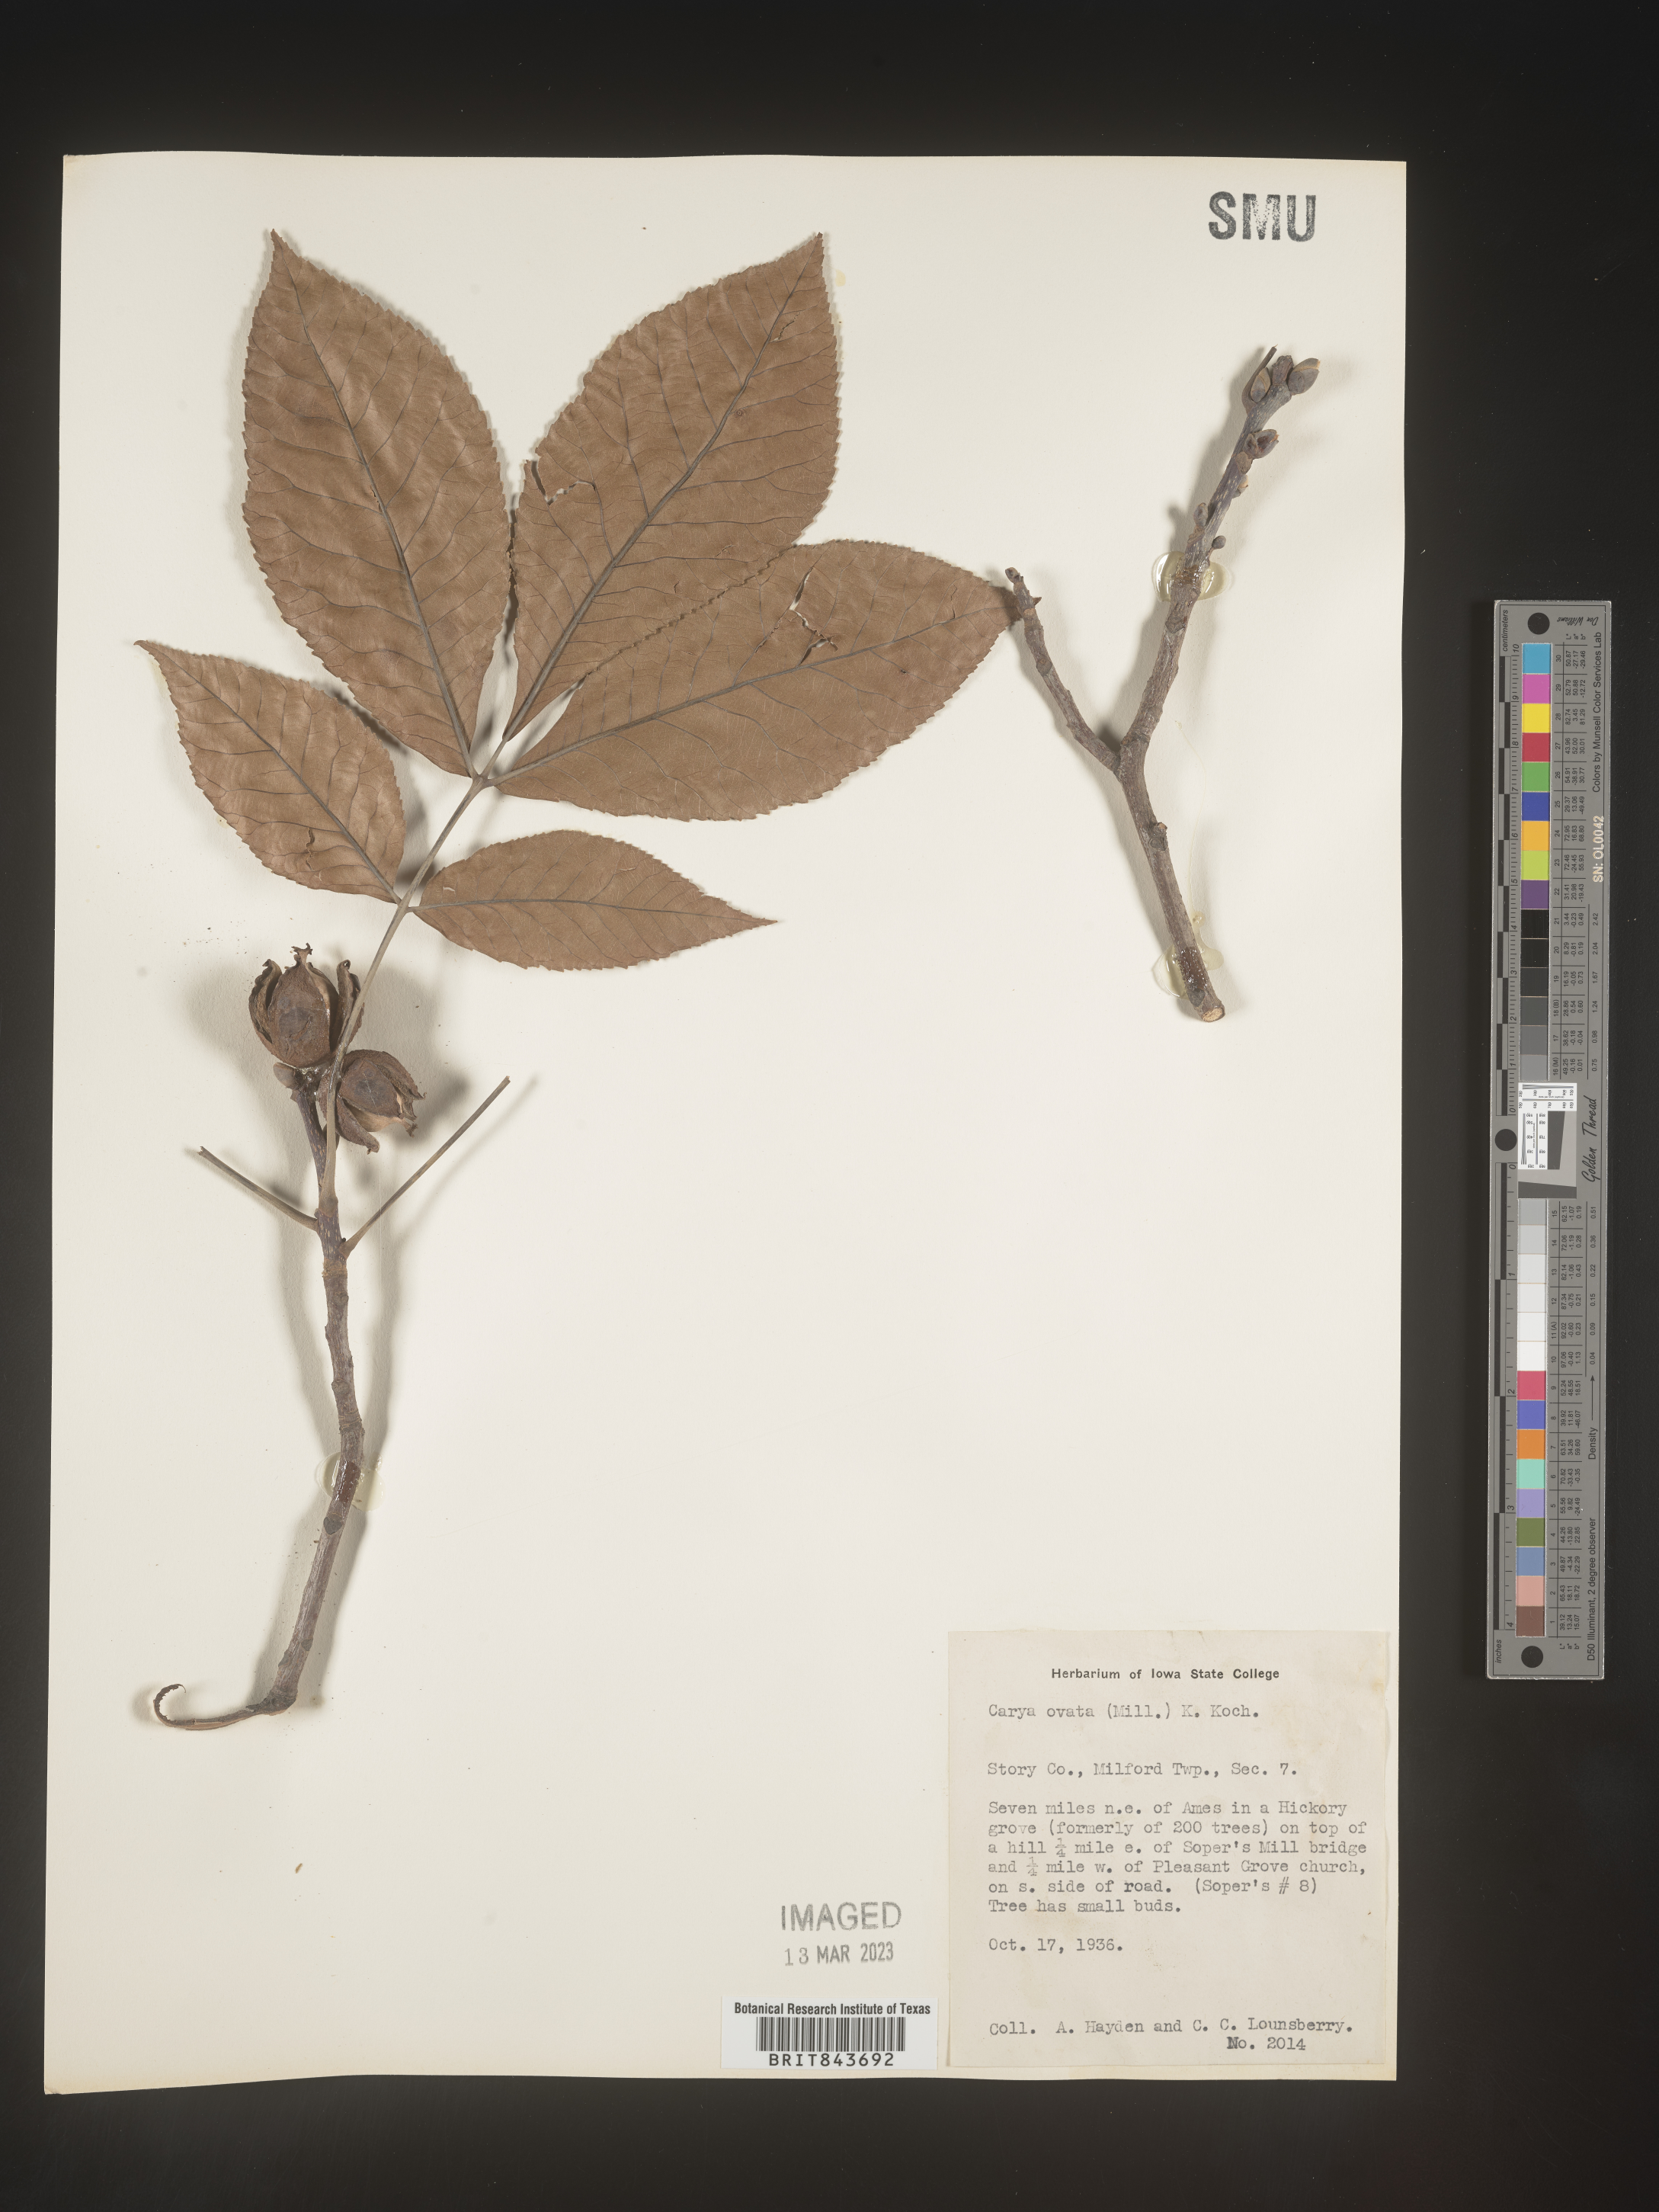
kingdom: Plantae
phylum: Tracheophyta
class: Magnoliopsida
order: Fagales
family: Juglandaceae
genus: Carya
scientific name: Carya ovata
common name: Shagbark hickory
